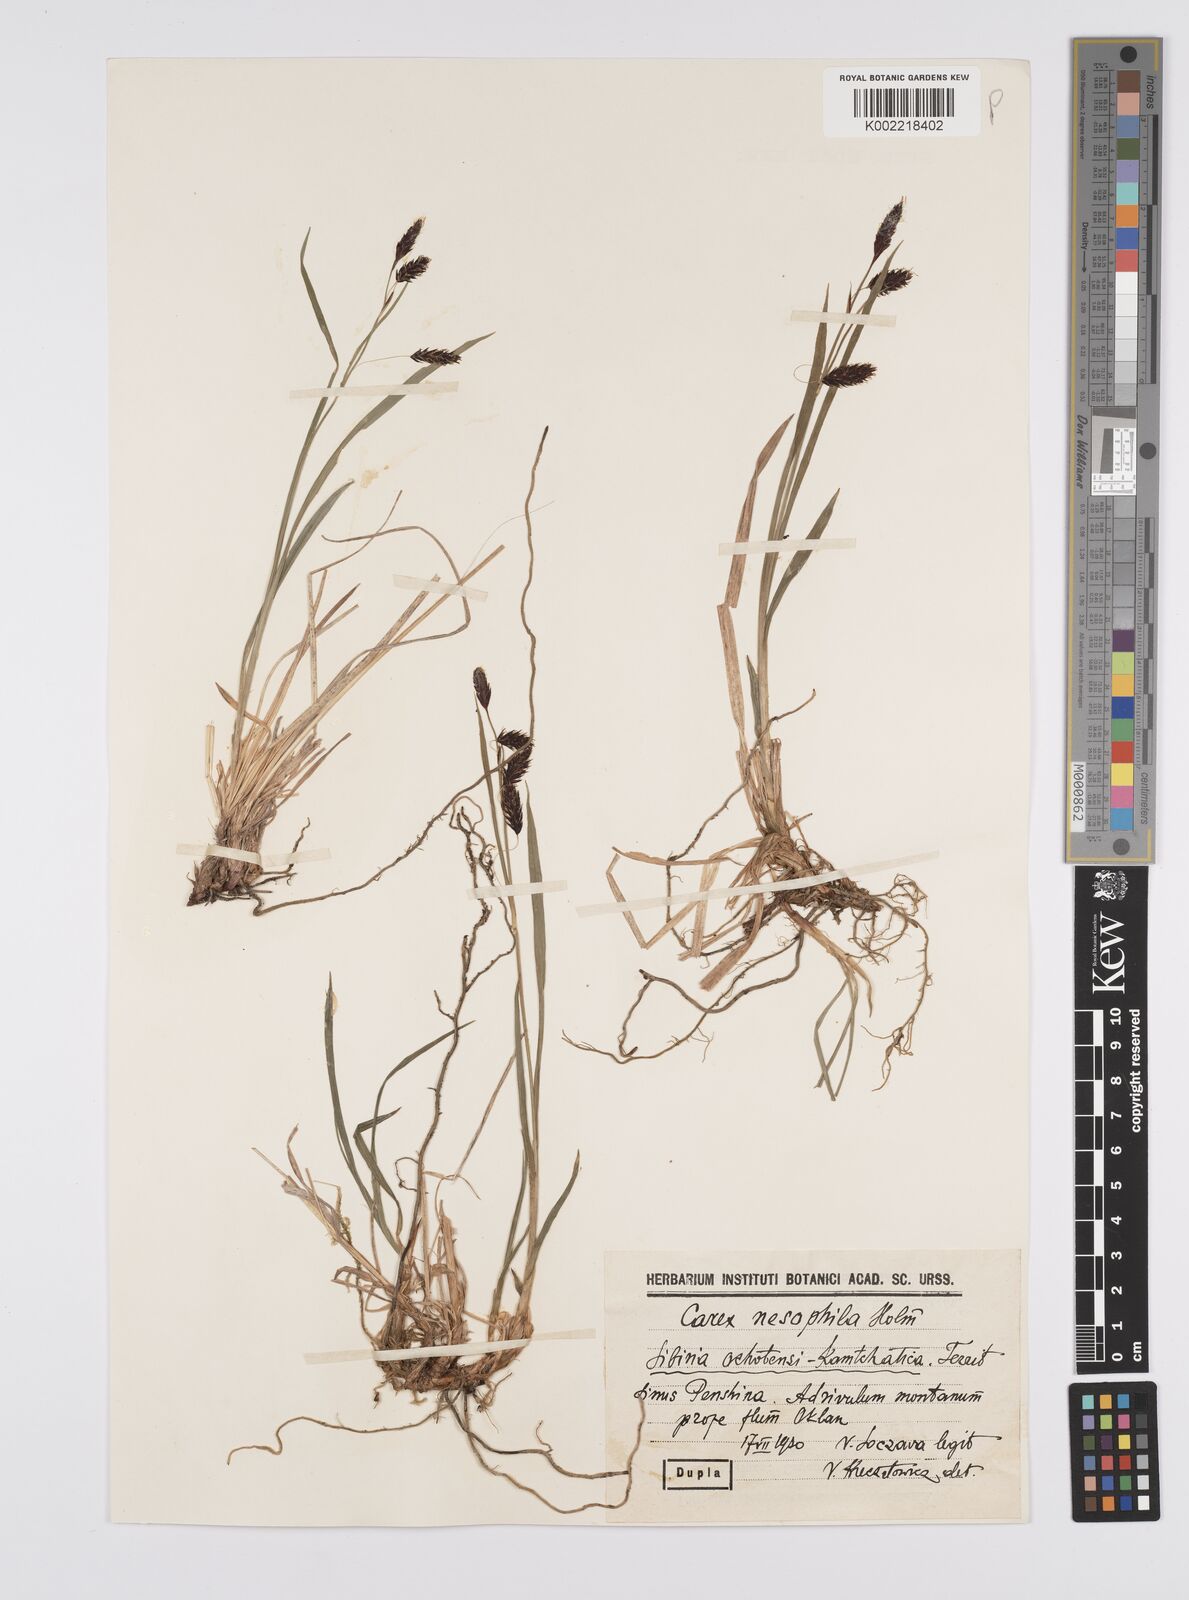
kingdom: Plantae
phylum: Tracheophyta
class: Liliopsida
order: Poales
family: Cyperaceae
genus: Carex
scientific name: Carex macrochaeta
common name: Alaska large awn sedge
